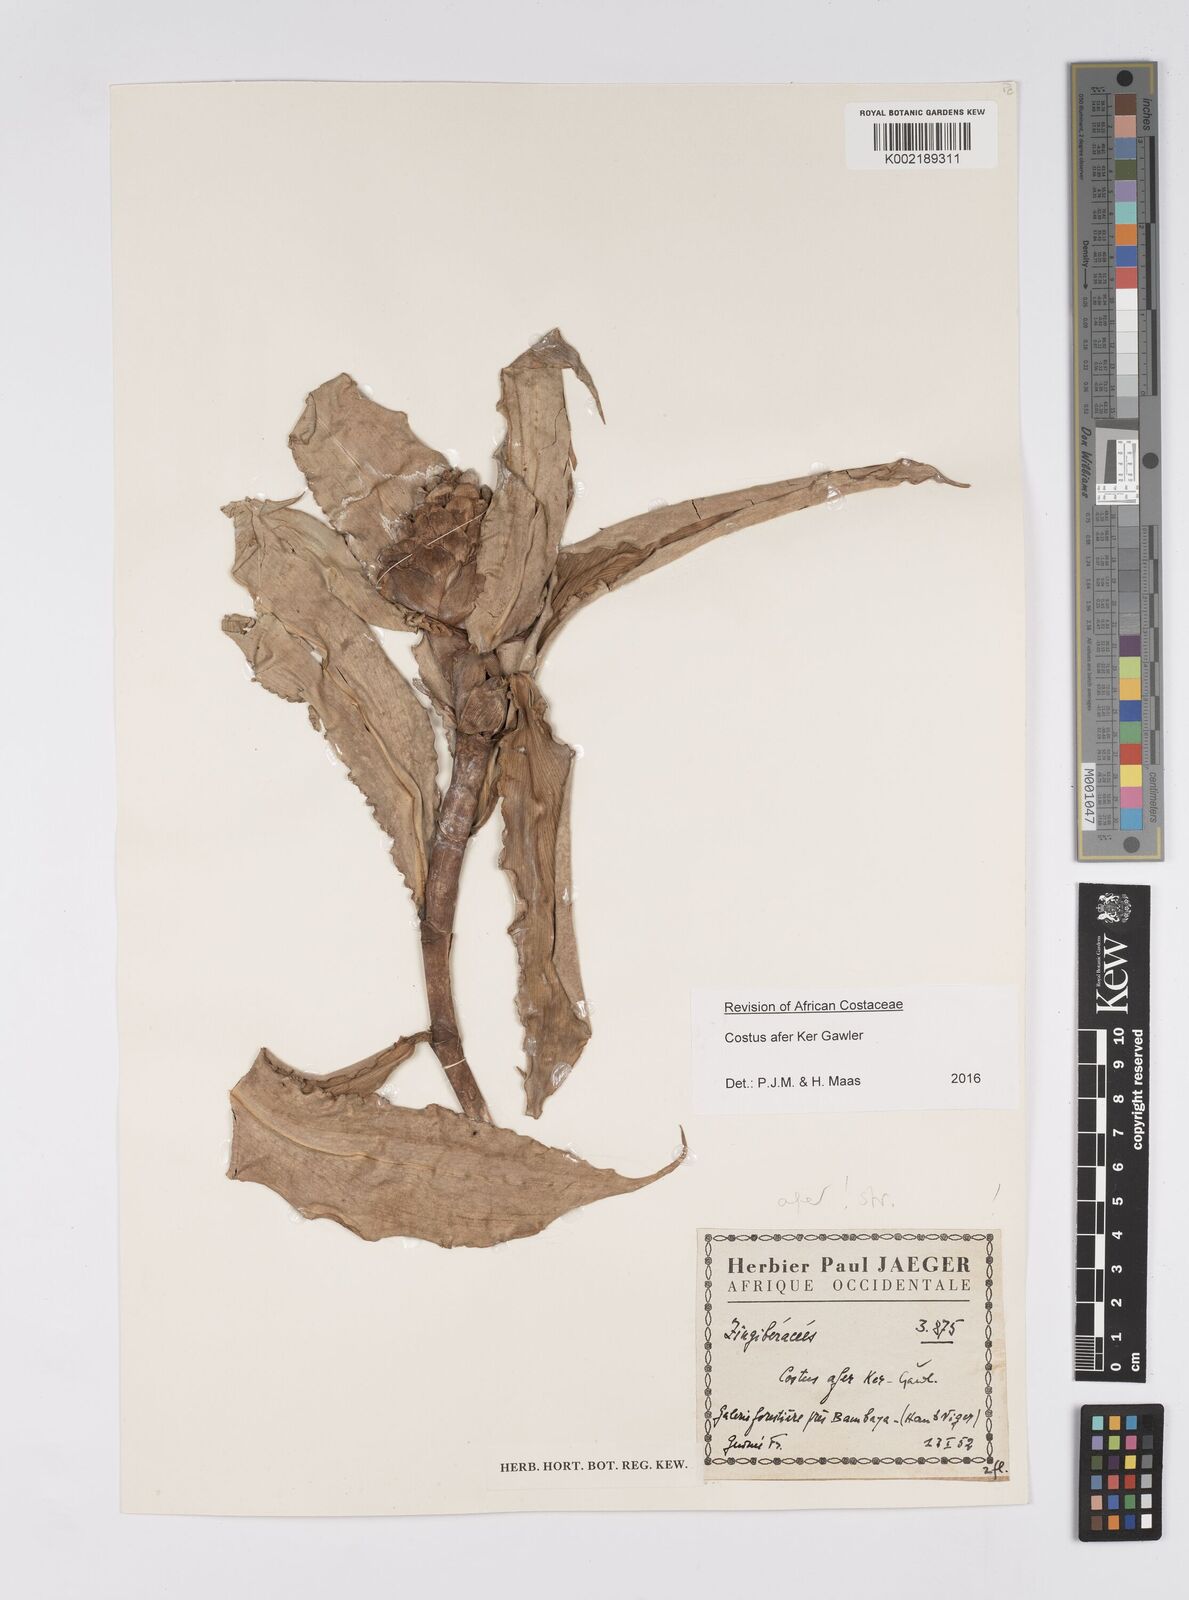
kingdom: Plantae
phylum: Tracheophyta
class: Liliopsida
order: Zingiberales
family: Costaceae
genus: Costus
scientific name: Costus afer
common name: Spiral-ginger
